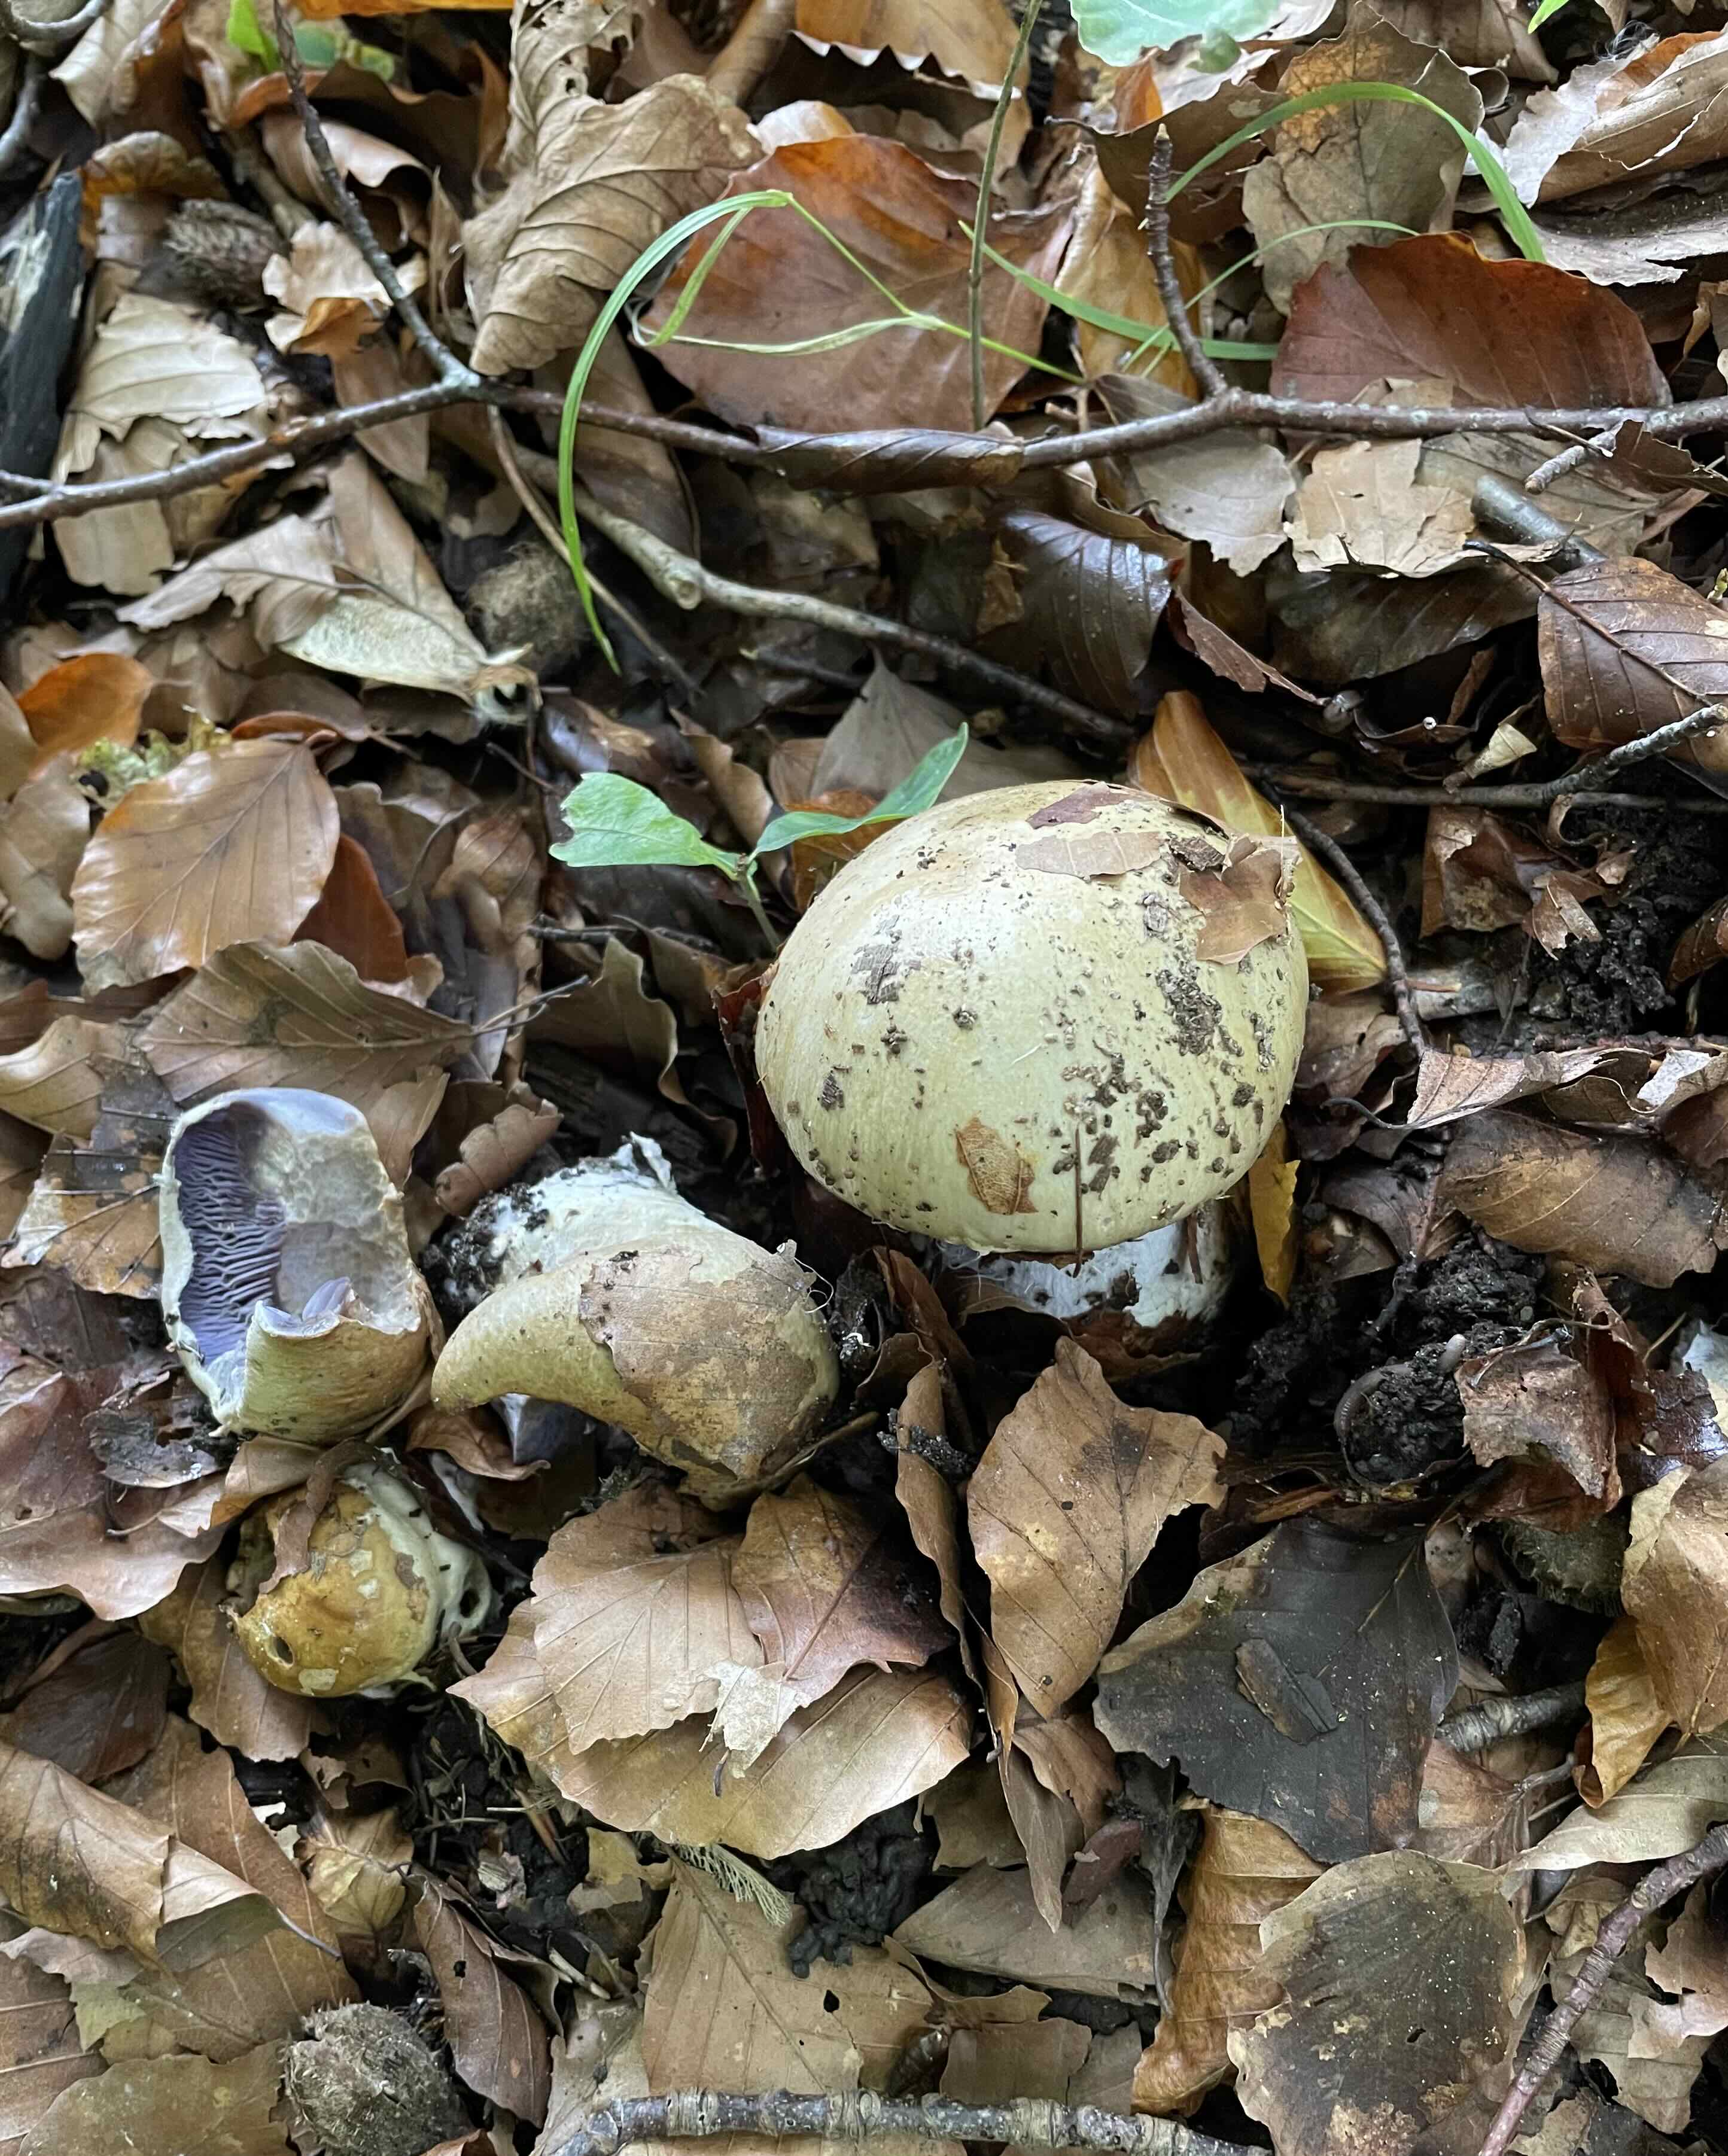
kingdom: Fungi
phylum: Basidiomycota
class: Agaricomycetes
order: Agaricales
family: Cortinariaceae
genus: Cortinarius
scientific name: Cortinarius anserinus
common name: bøge-slørhat
